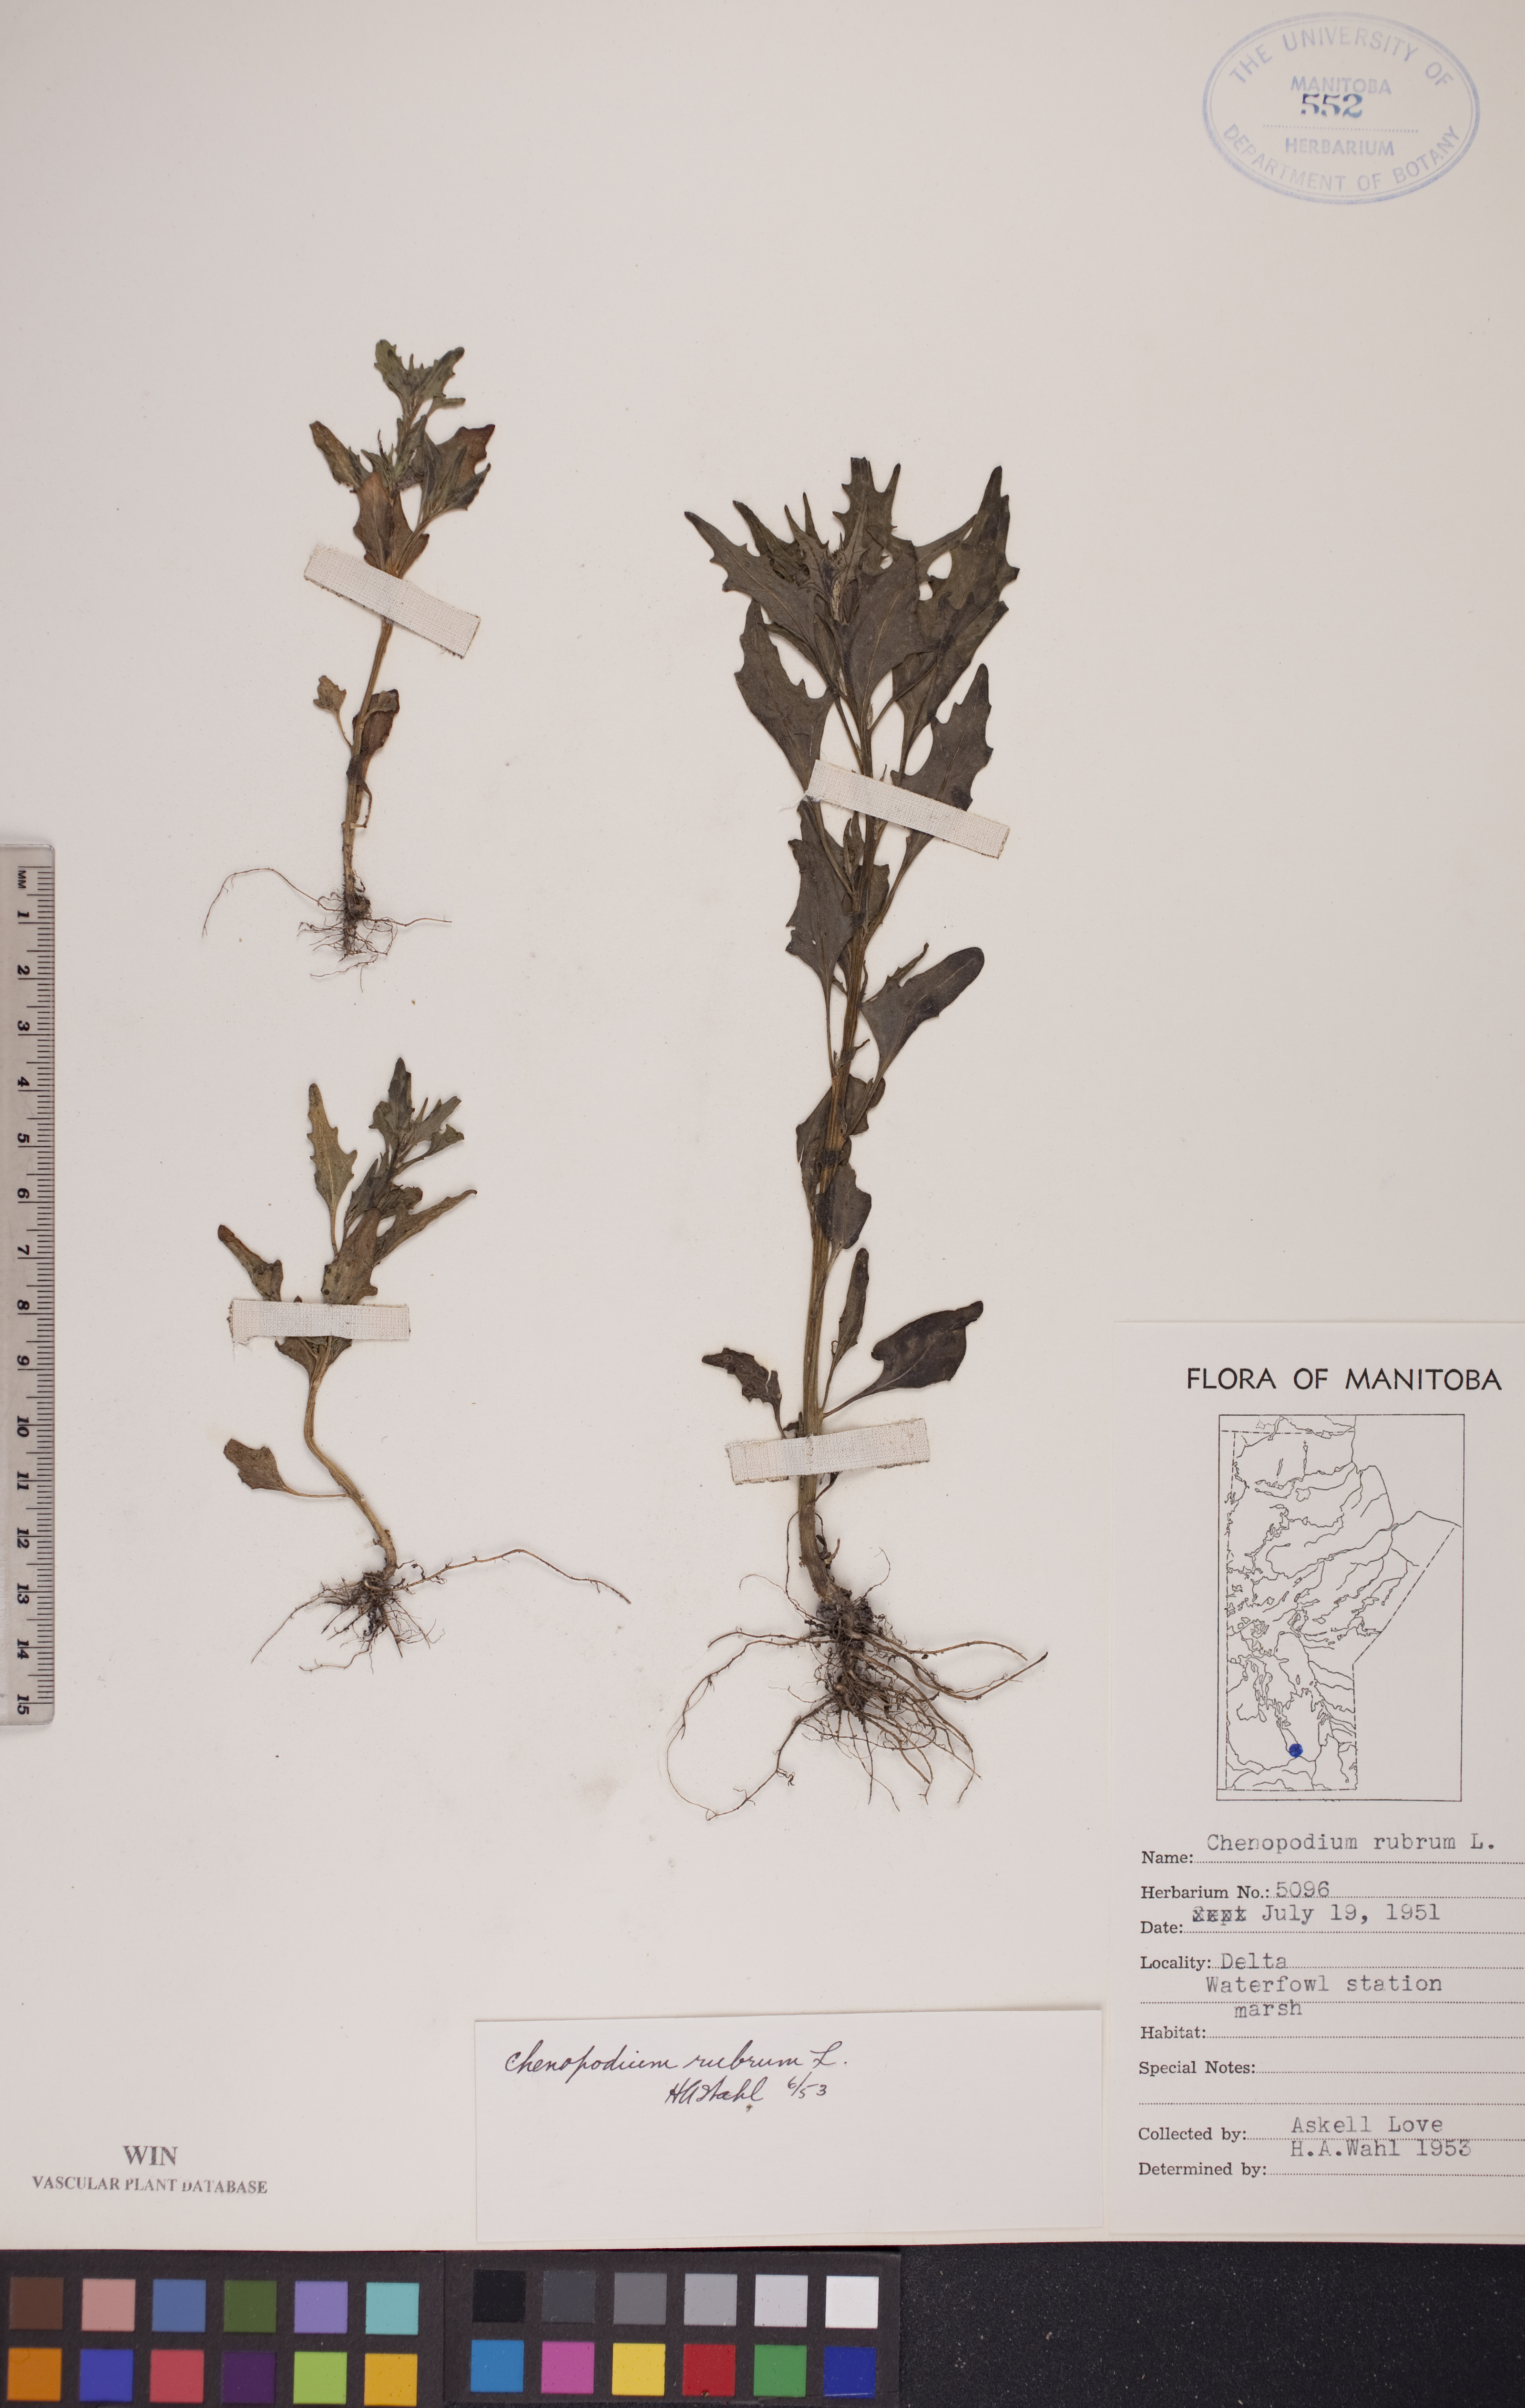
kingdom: Plantae
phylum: Tracheophyta
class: Magnoliopsida
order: Caryophyllales
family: Amaranthaceae
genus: Oxybasis
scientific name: Oxybasis rubra
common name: Red goosefoot
